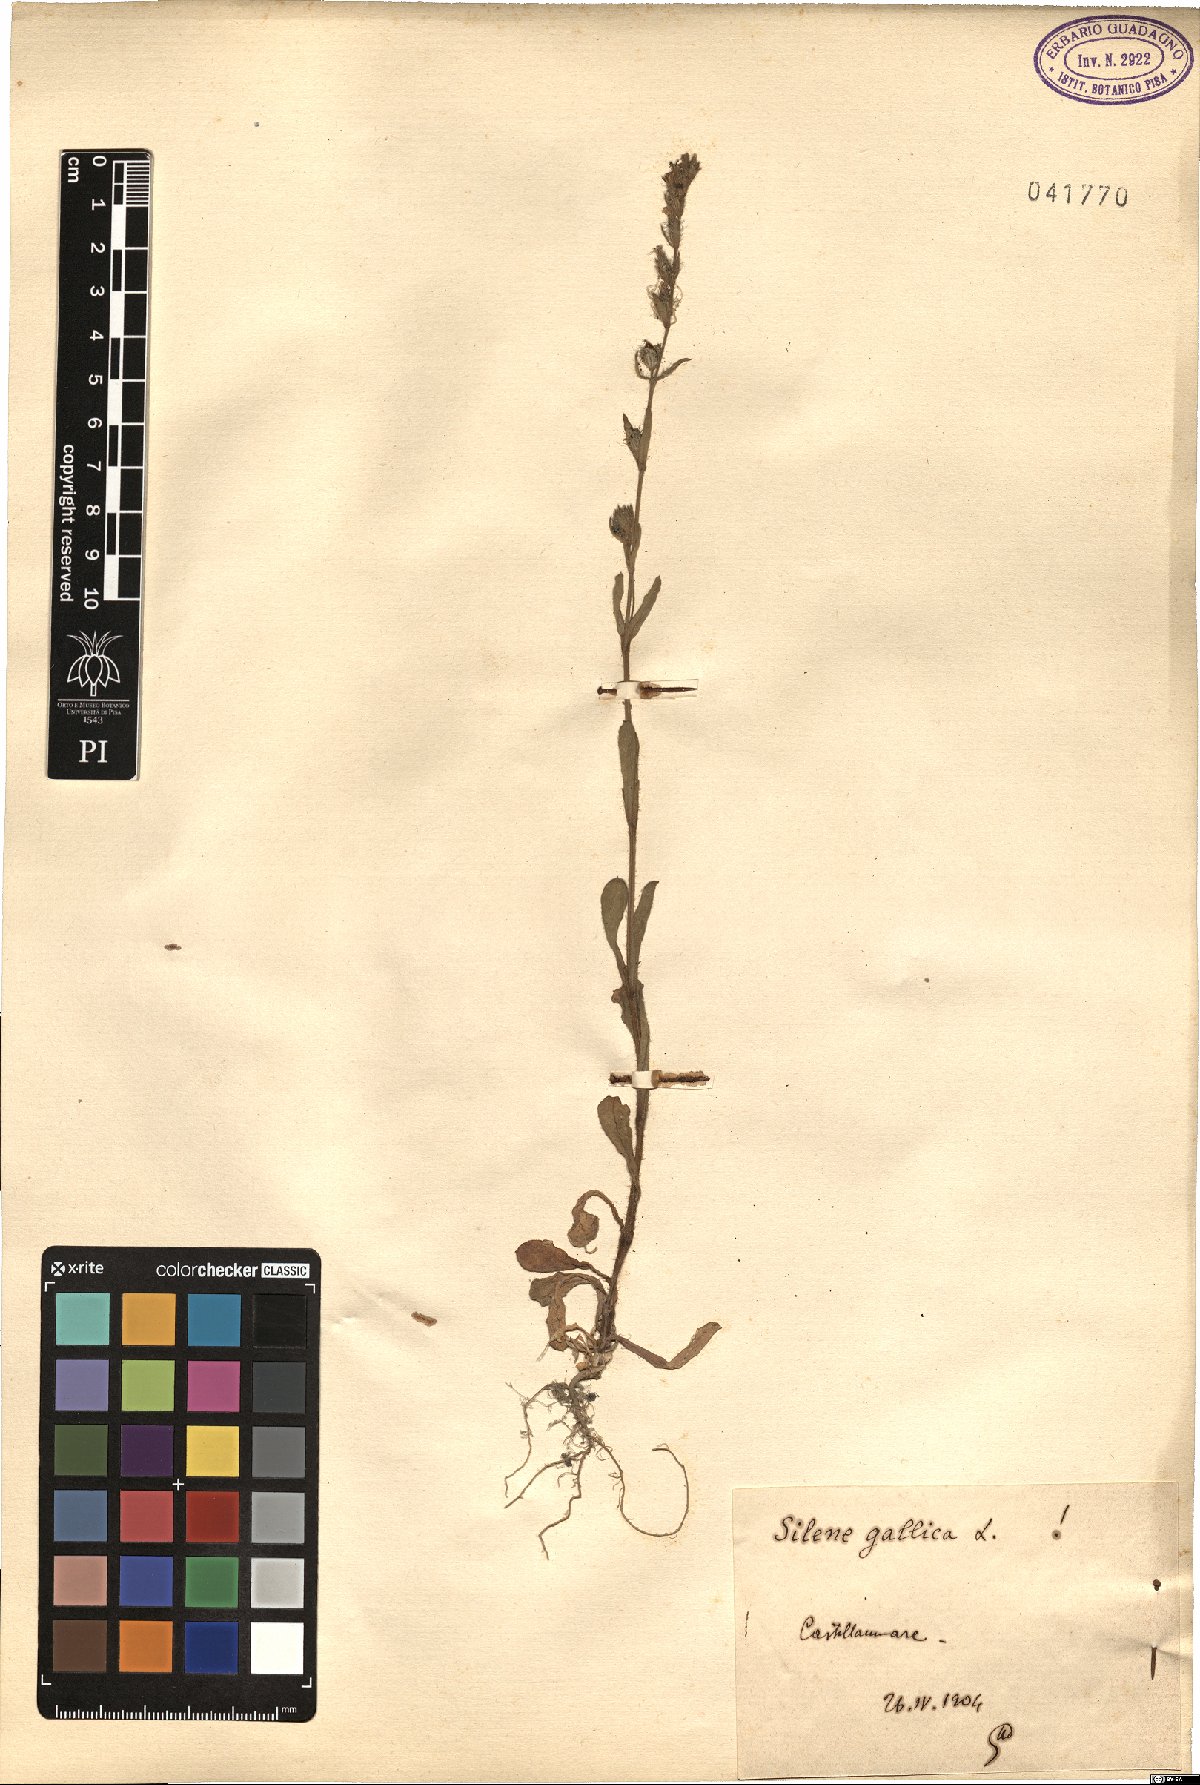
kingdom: Plantae
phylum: Tracheophyta
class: Magnoliopsida
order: Caryophyllales
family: Caryophyllaceae
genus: Silene
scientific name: Silene gallica
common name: Small-flowered catchfly
